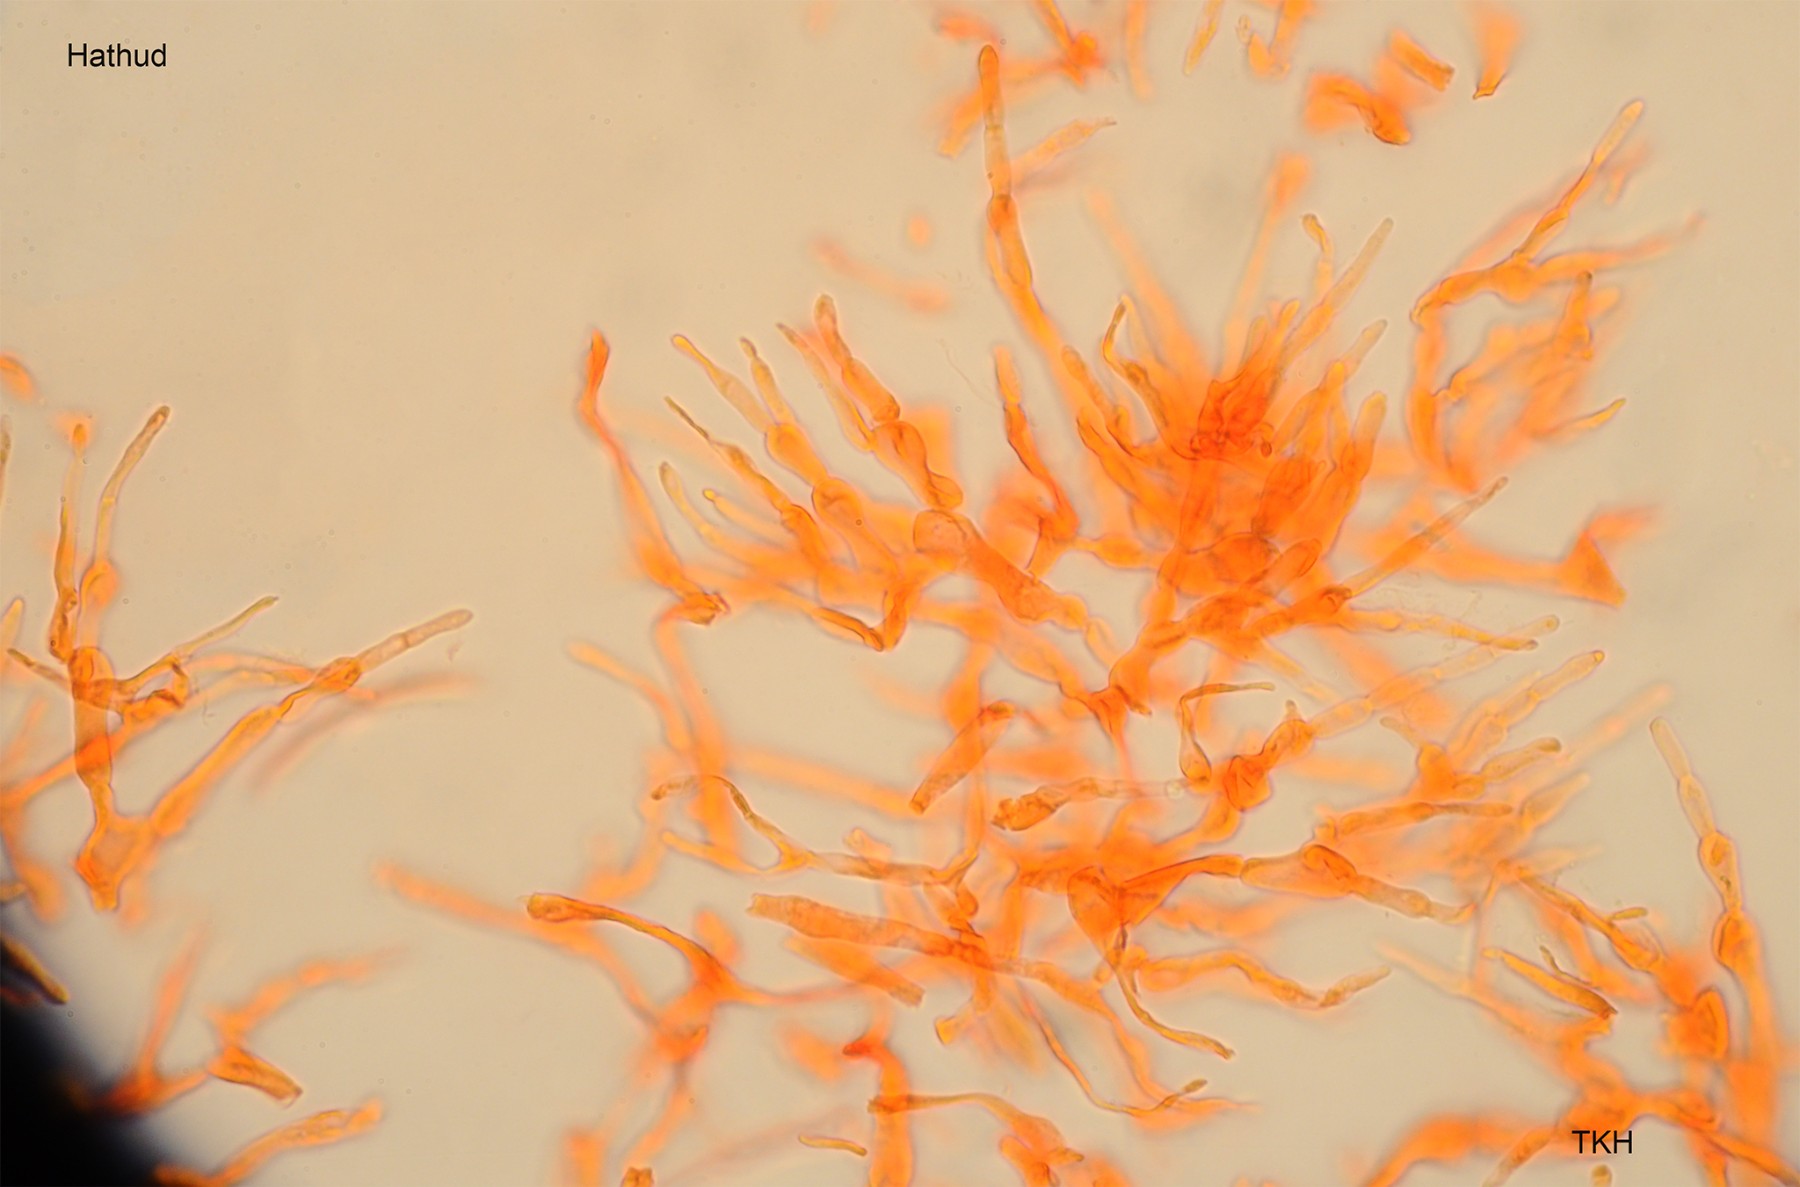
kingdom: Fungi
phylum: Basidiomycota
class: Agaricomycetes
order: Russulales
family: Russulaceae
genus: Russula
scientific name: Russula heterophylla
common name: gaffelbladet skørhat
